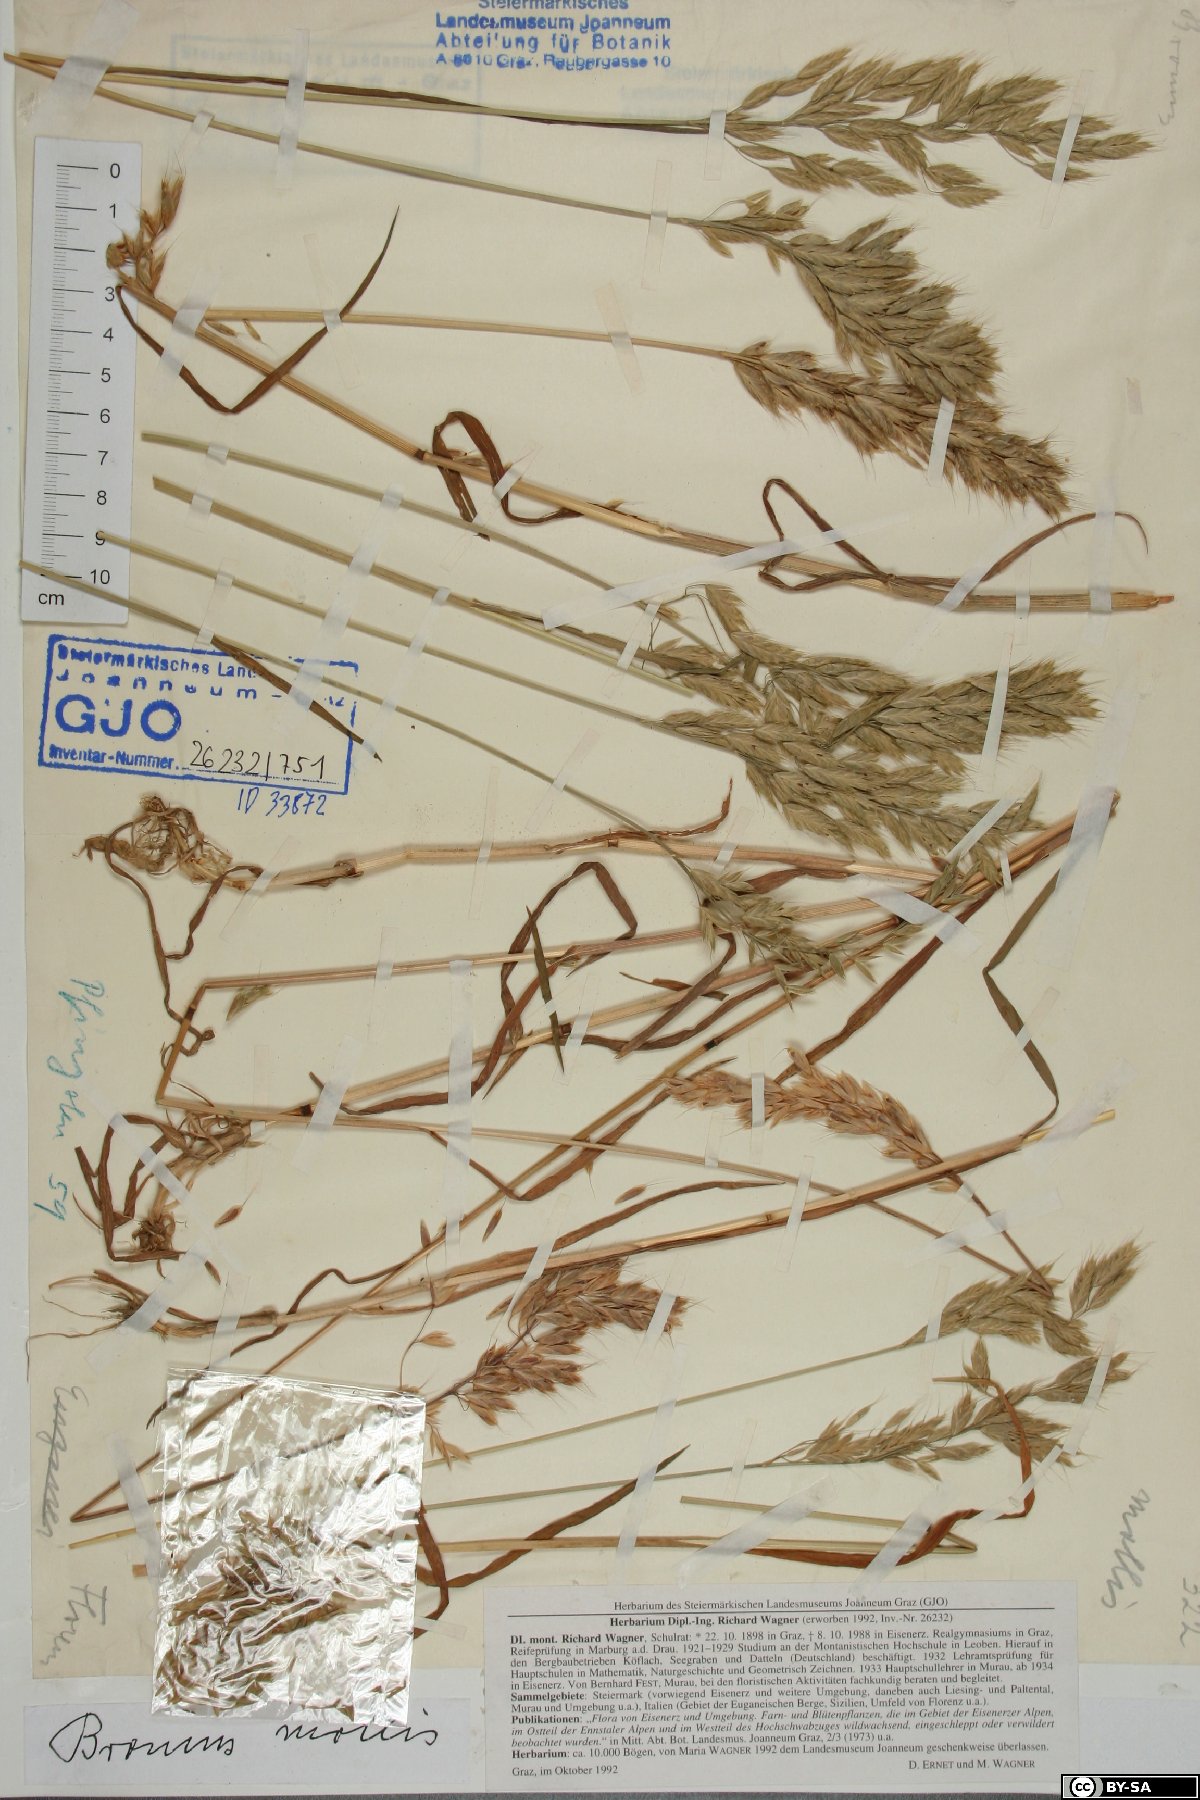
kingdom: Plantae
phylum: Tracheophyta
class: Liliopsida
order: Poales
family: Poaceae
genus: Bromus
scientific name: Bromus hordeaceus
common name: Soft brome
